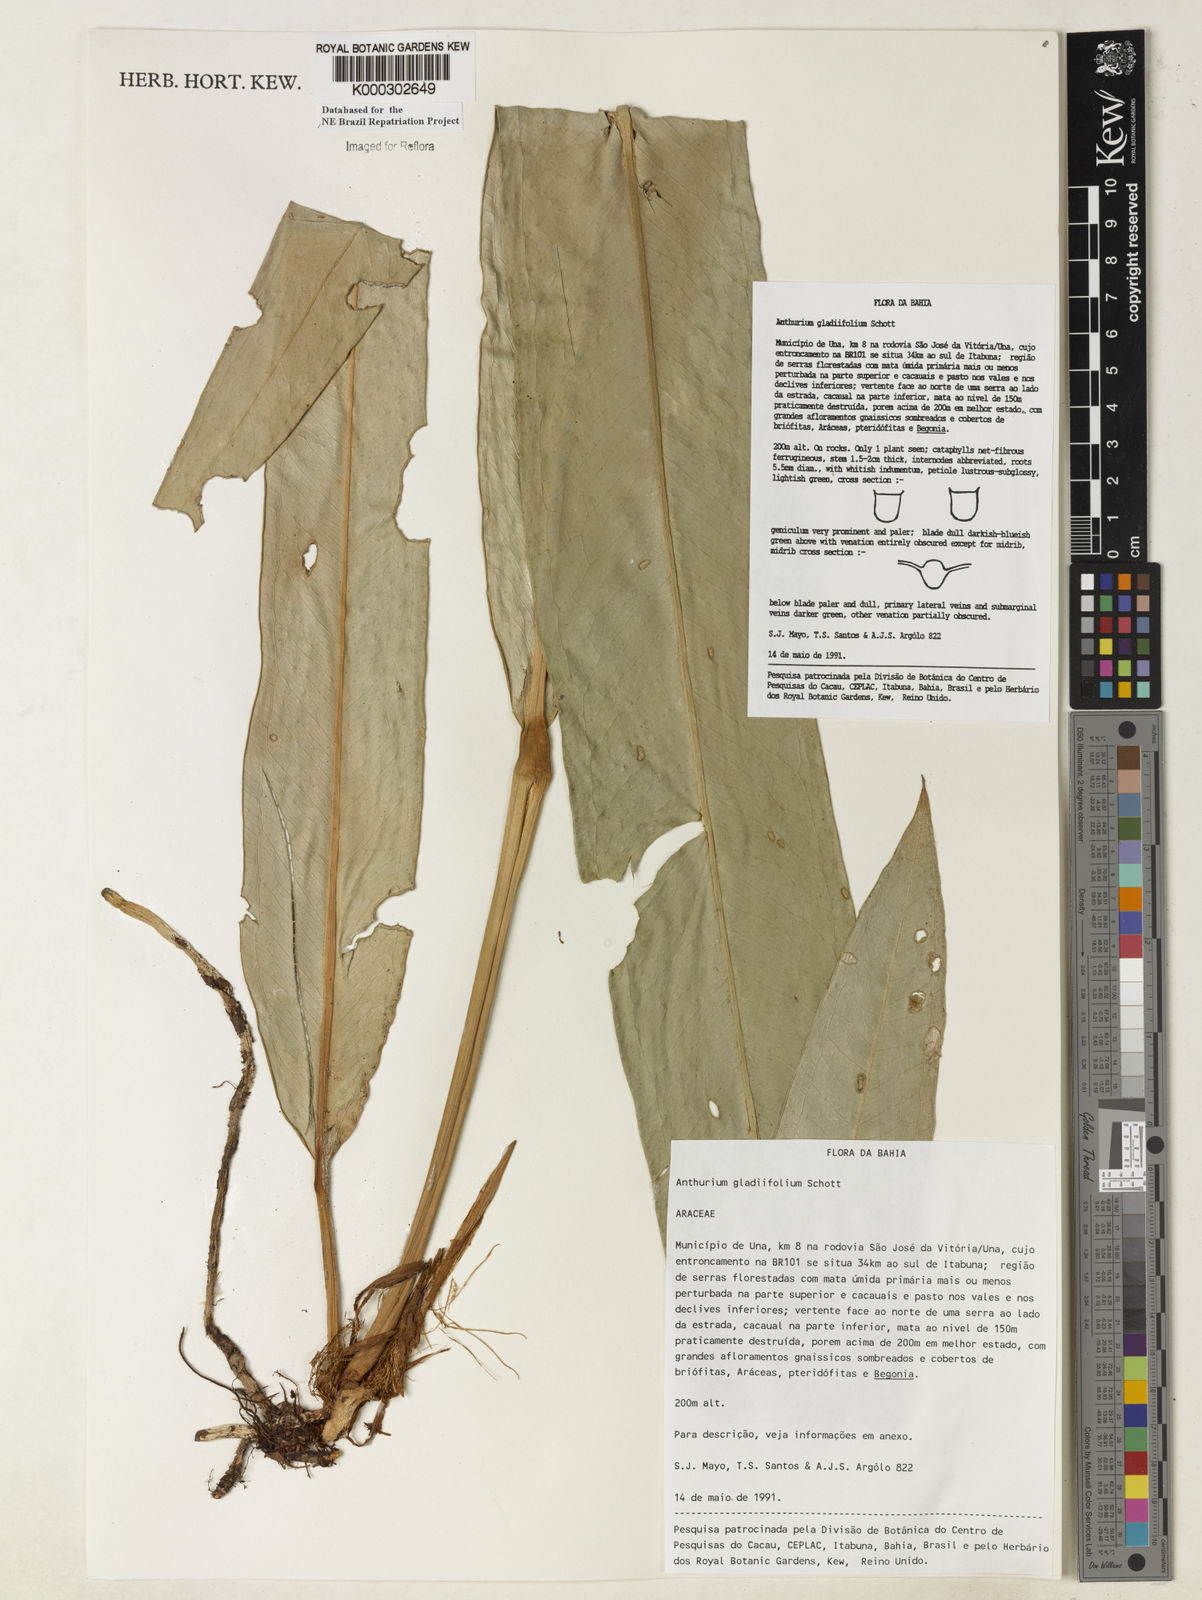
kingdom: Plantae
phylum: Tracheophyta
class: Liliopsida
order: Alismatales
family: Araceae
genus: Anthurium
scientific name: Anthurium gladiifolium
